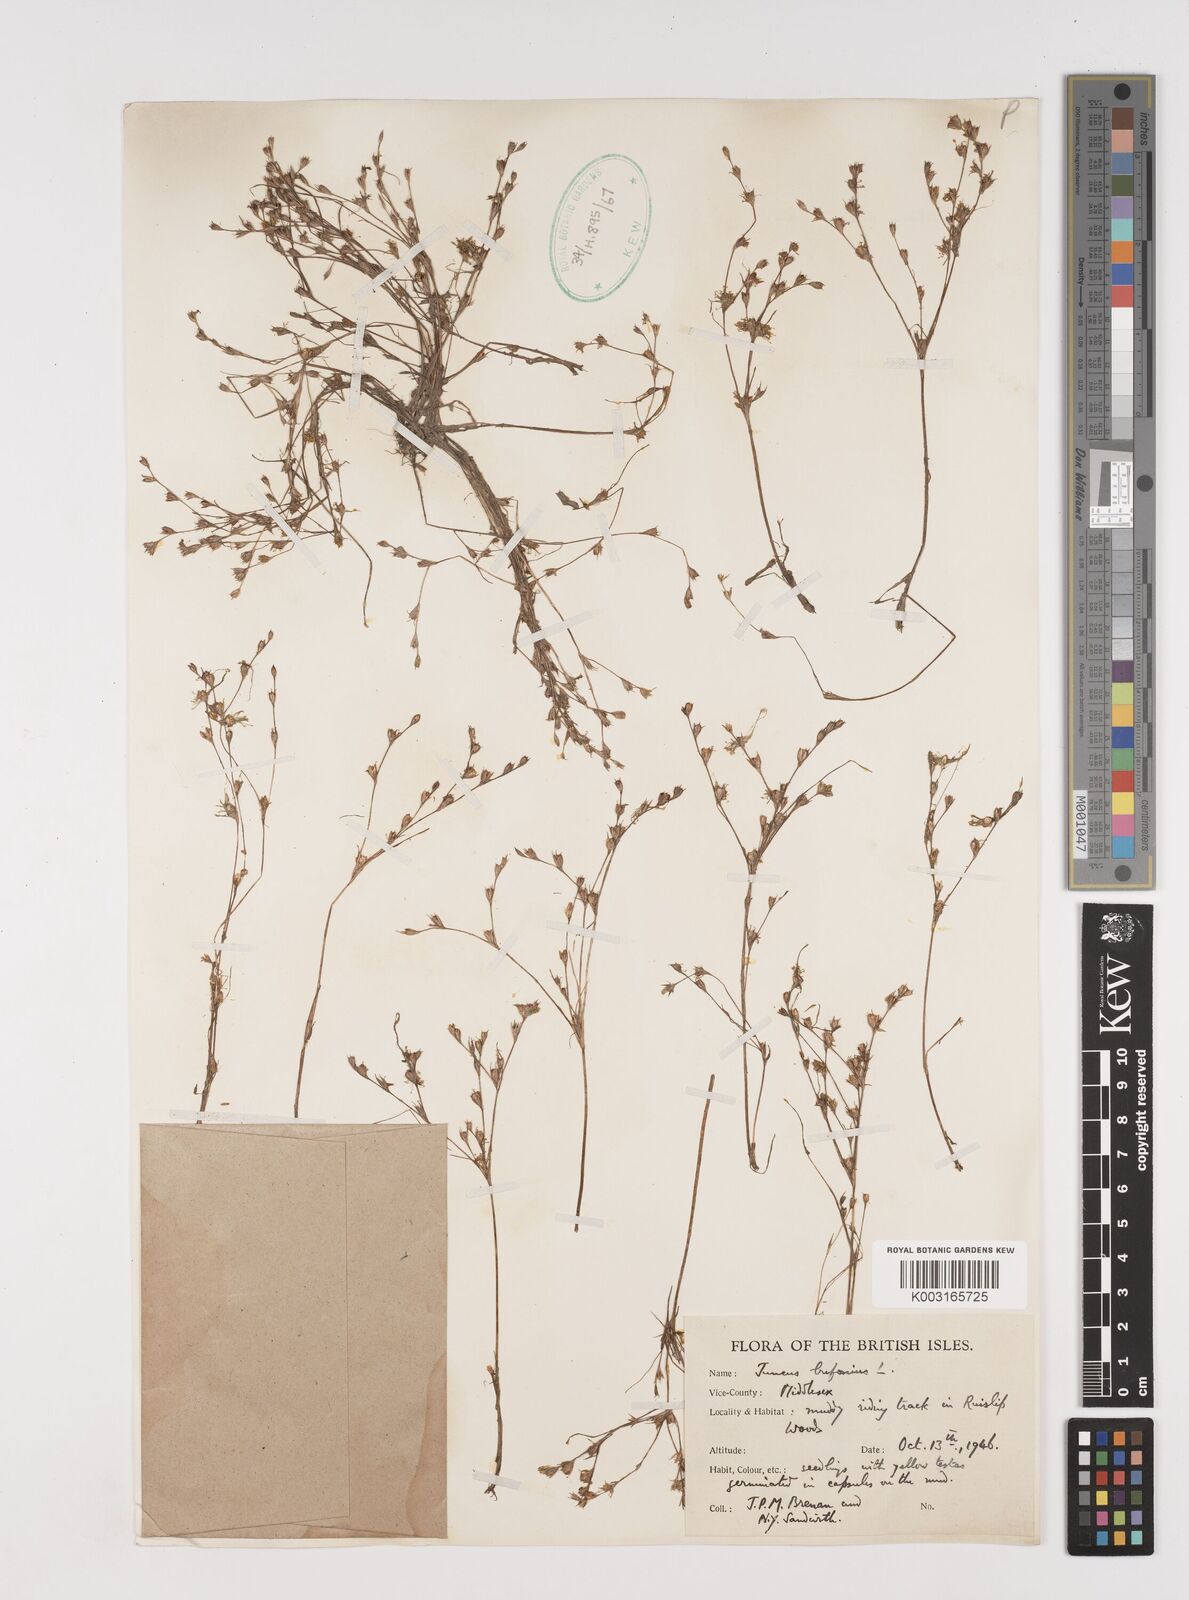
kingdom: Plantae
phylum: Tracheophyta
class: Liliopsida
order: Poales
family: Juncaceae
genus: Juncus
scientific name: Juncus bufonius
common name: Toad rush
